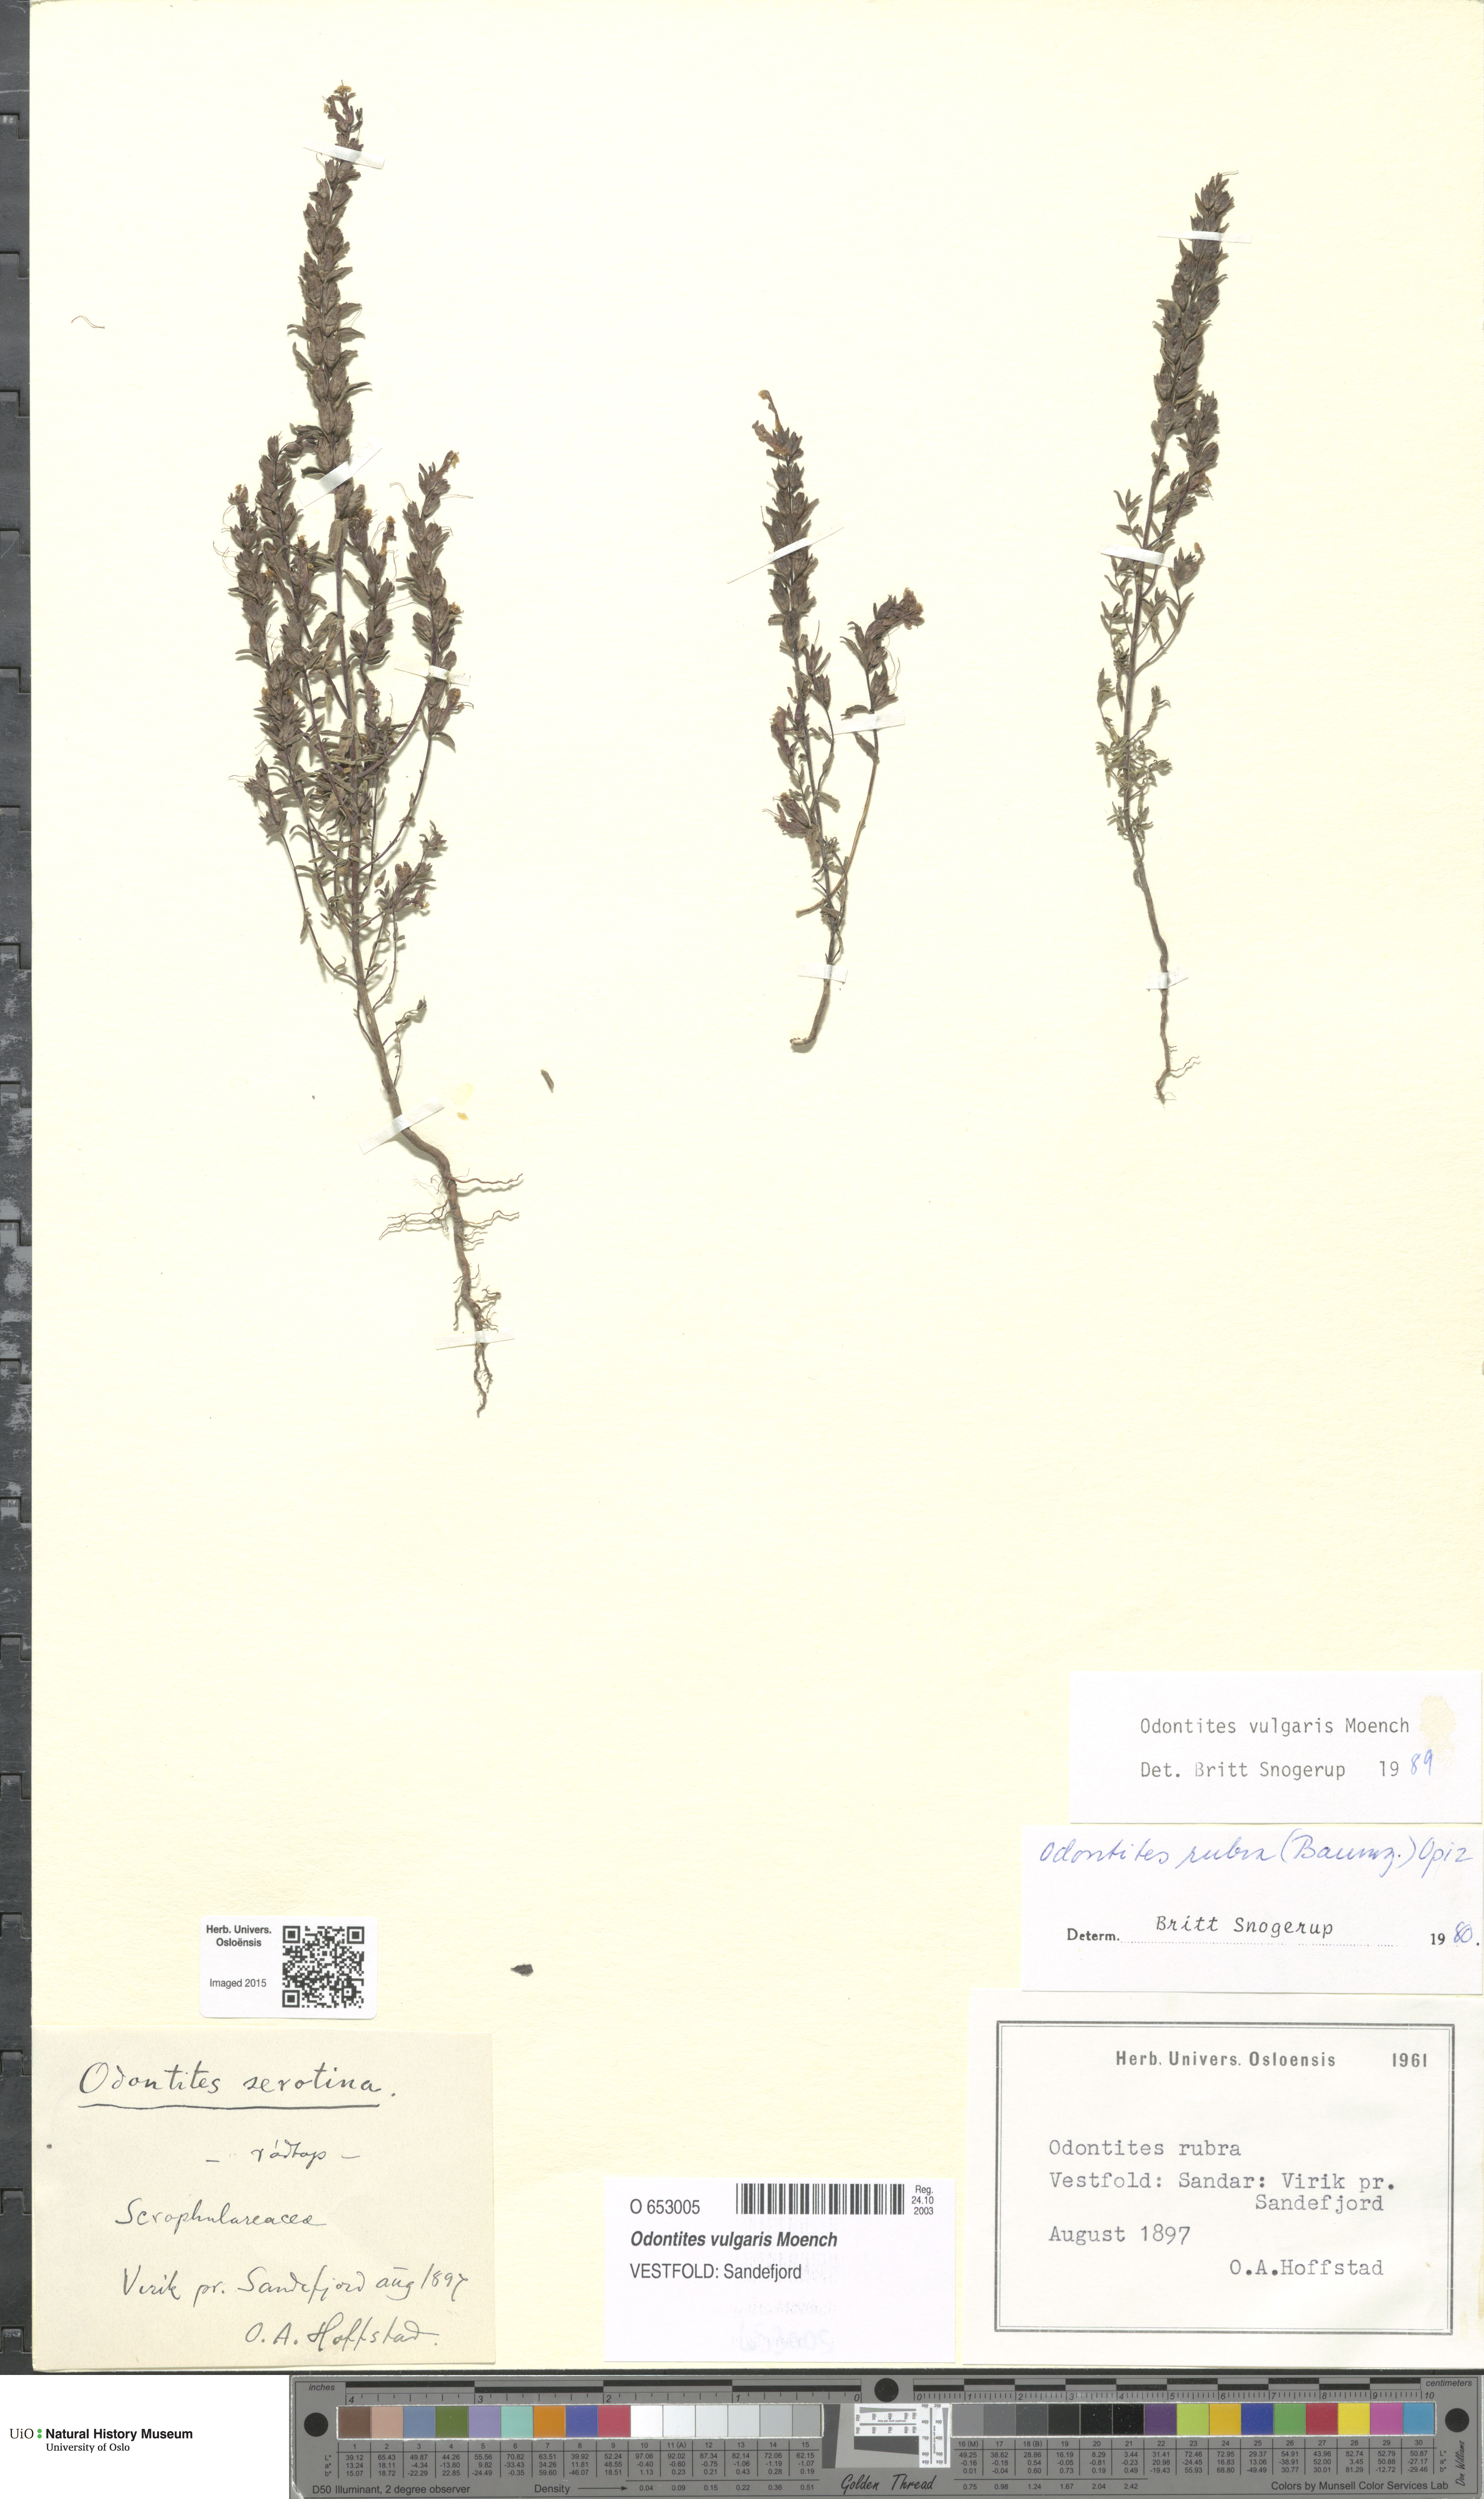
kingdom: Plantae
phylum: Tracheophyta
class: Magnoliopsida
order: Lamiales
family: Orobanchaceae
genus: Odontites
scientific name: Odontites vulgaris
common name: Broomrape
